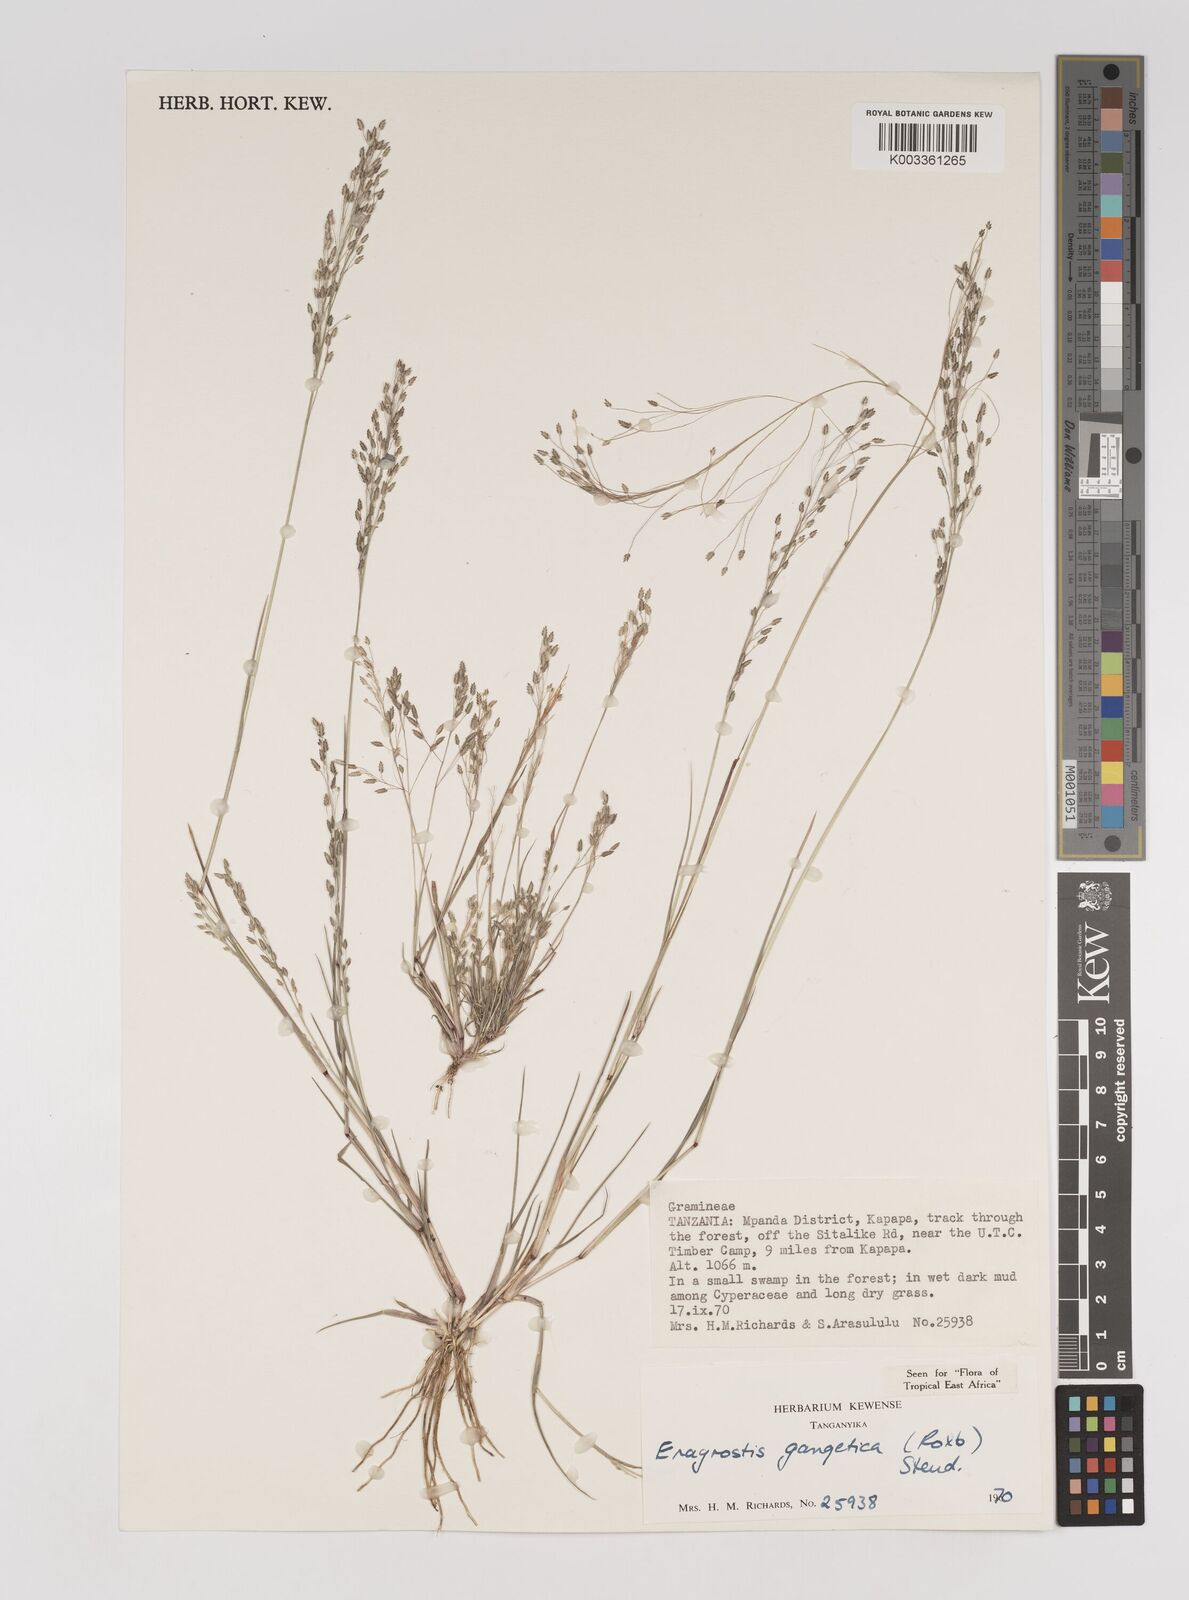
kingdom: Plantae
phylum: Tracheophyta
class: Liliopsida
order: Poales
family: Poaceae
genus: Eragrostis
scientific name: Eragrostis gangetica
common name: Slimflower lovegrass
